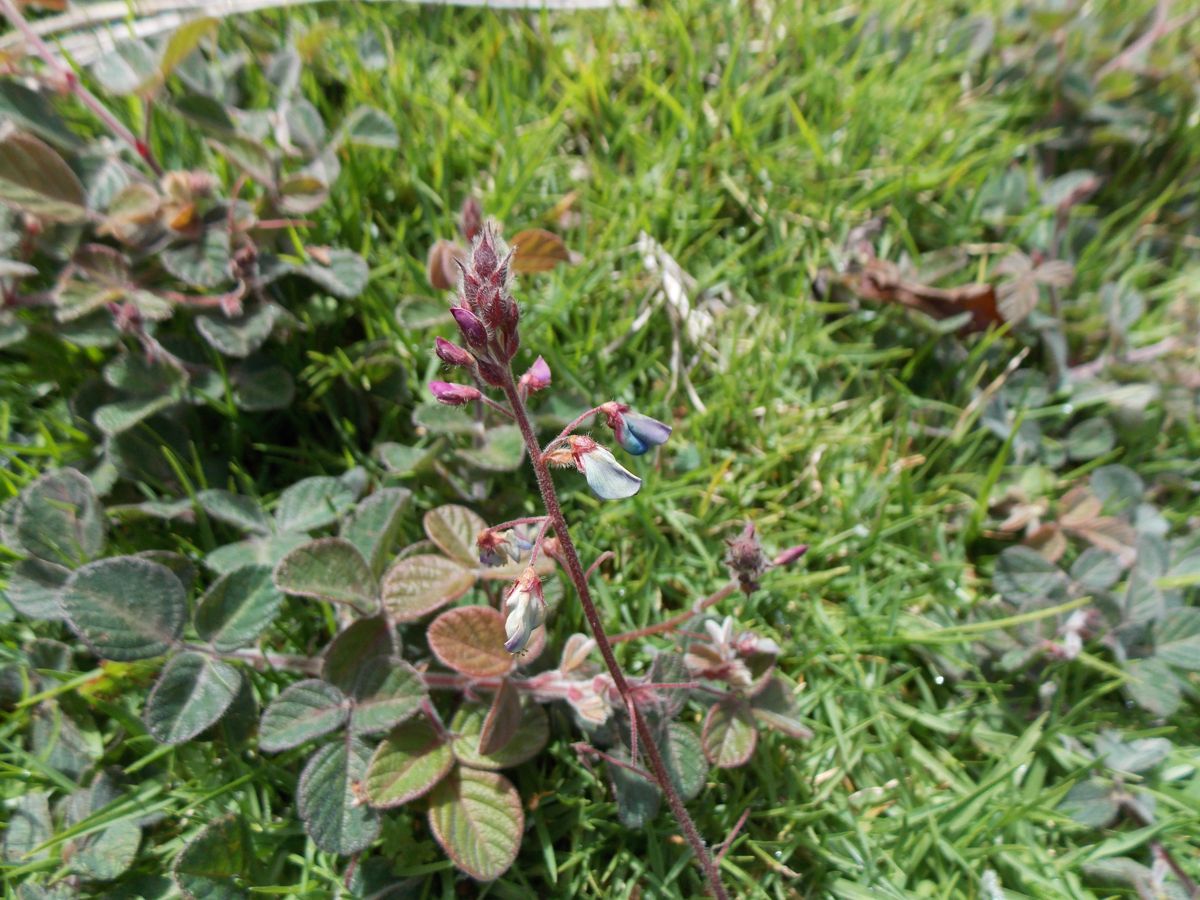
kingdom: Plantae
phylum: Tracheophyta
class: Magnoliopsida
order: Fabales
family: Fabaceae
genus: Desmodium
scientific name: Desmodium molliculum
